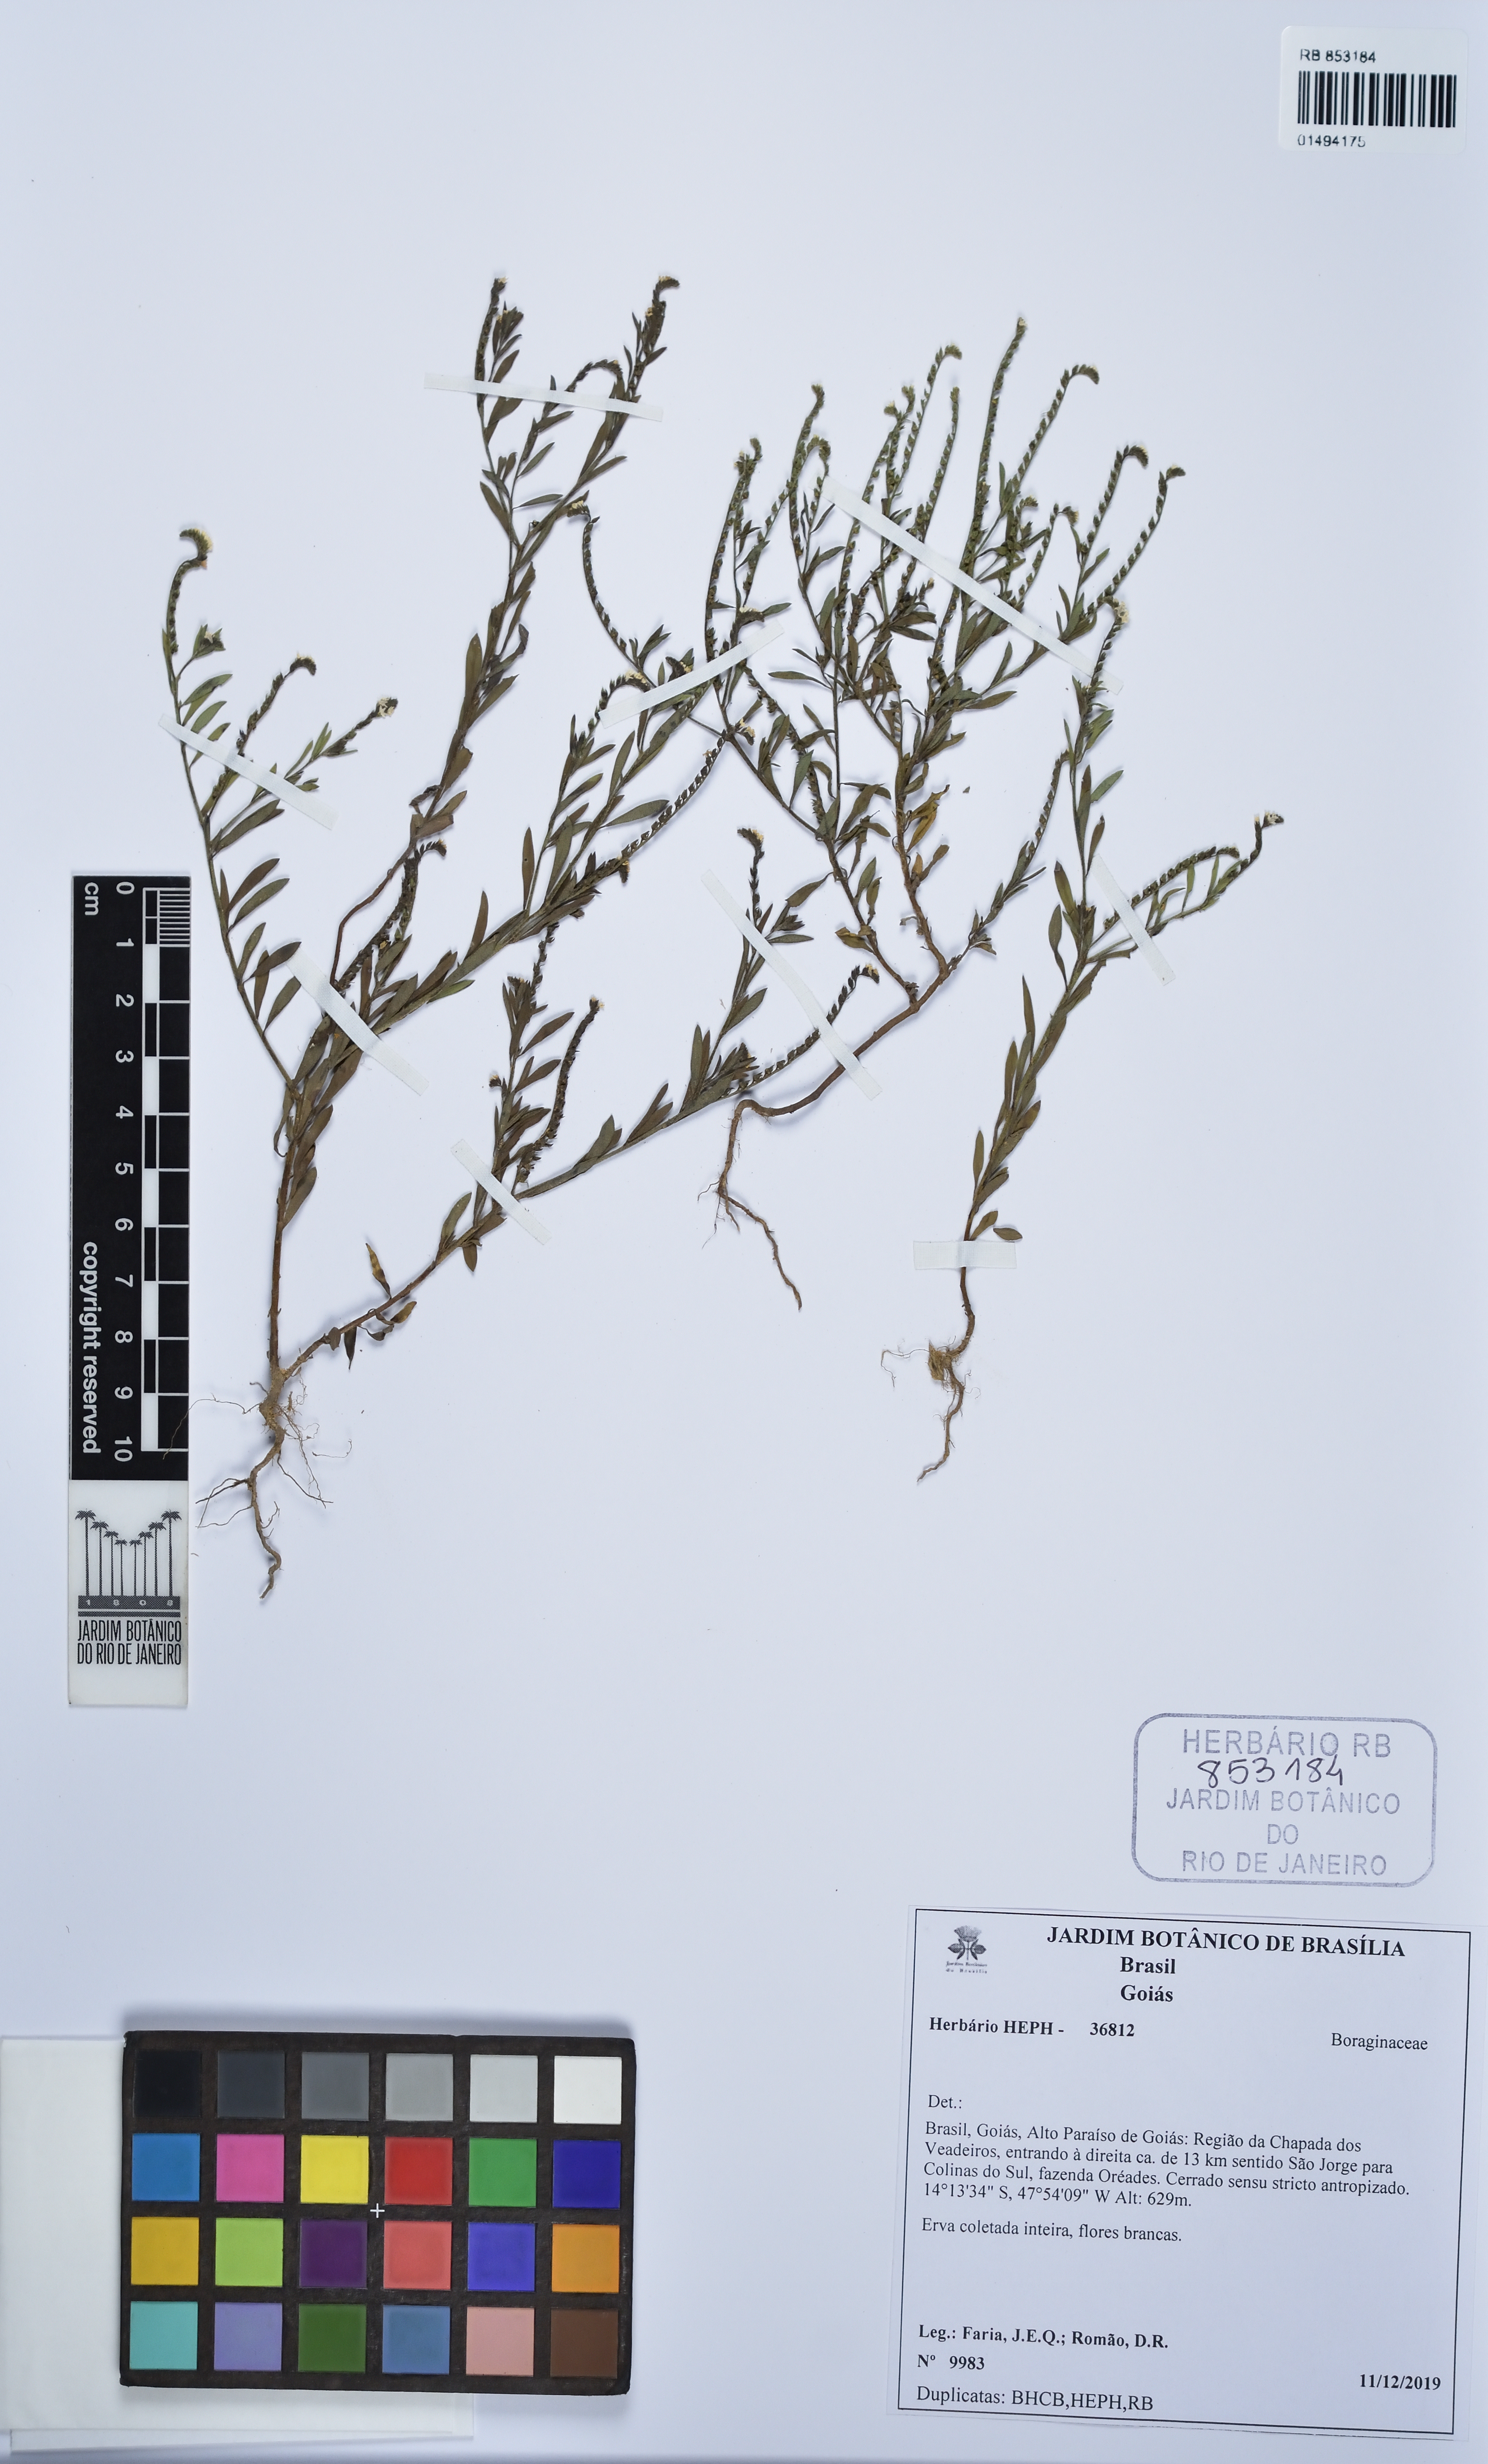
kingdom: Plantae
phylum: Tracheophyta
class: Magnoliopsida
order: Boraginales
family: Heliotropiaceae
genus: Euploca
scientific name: Euploca filiformis
